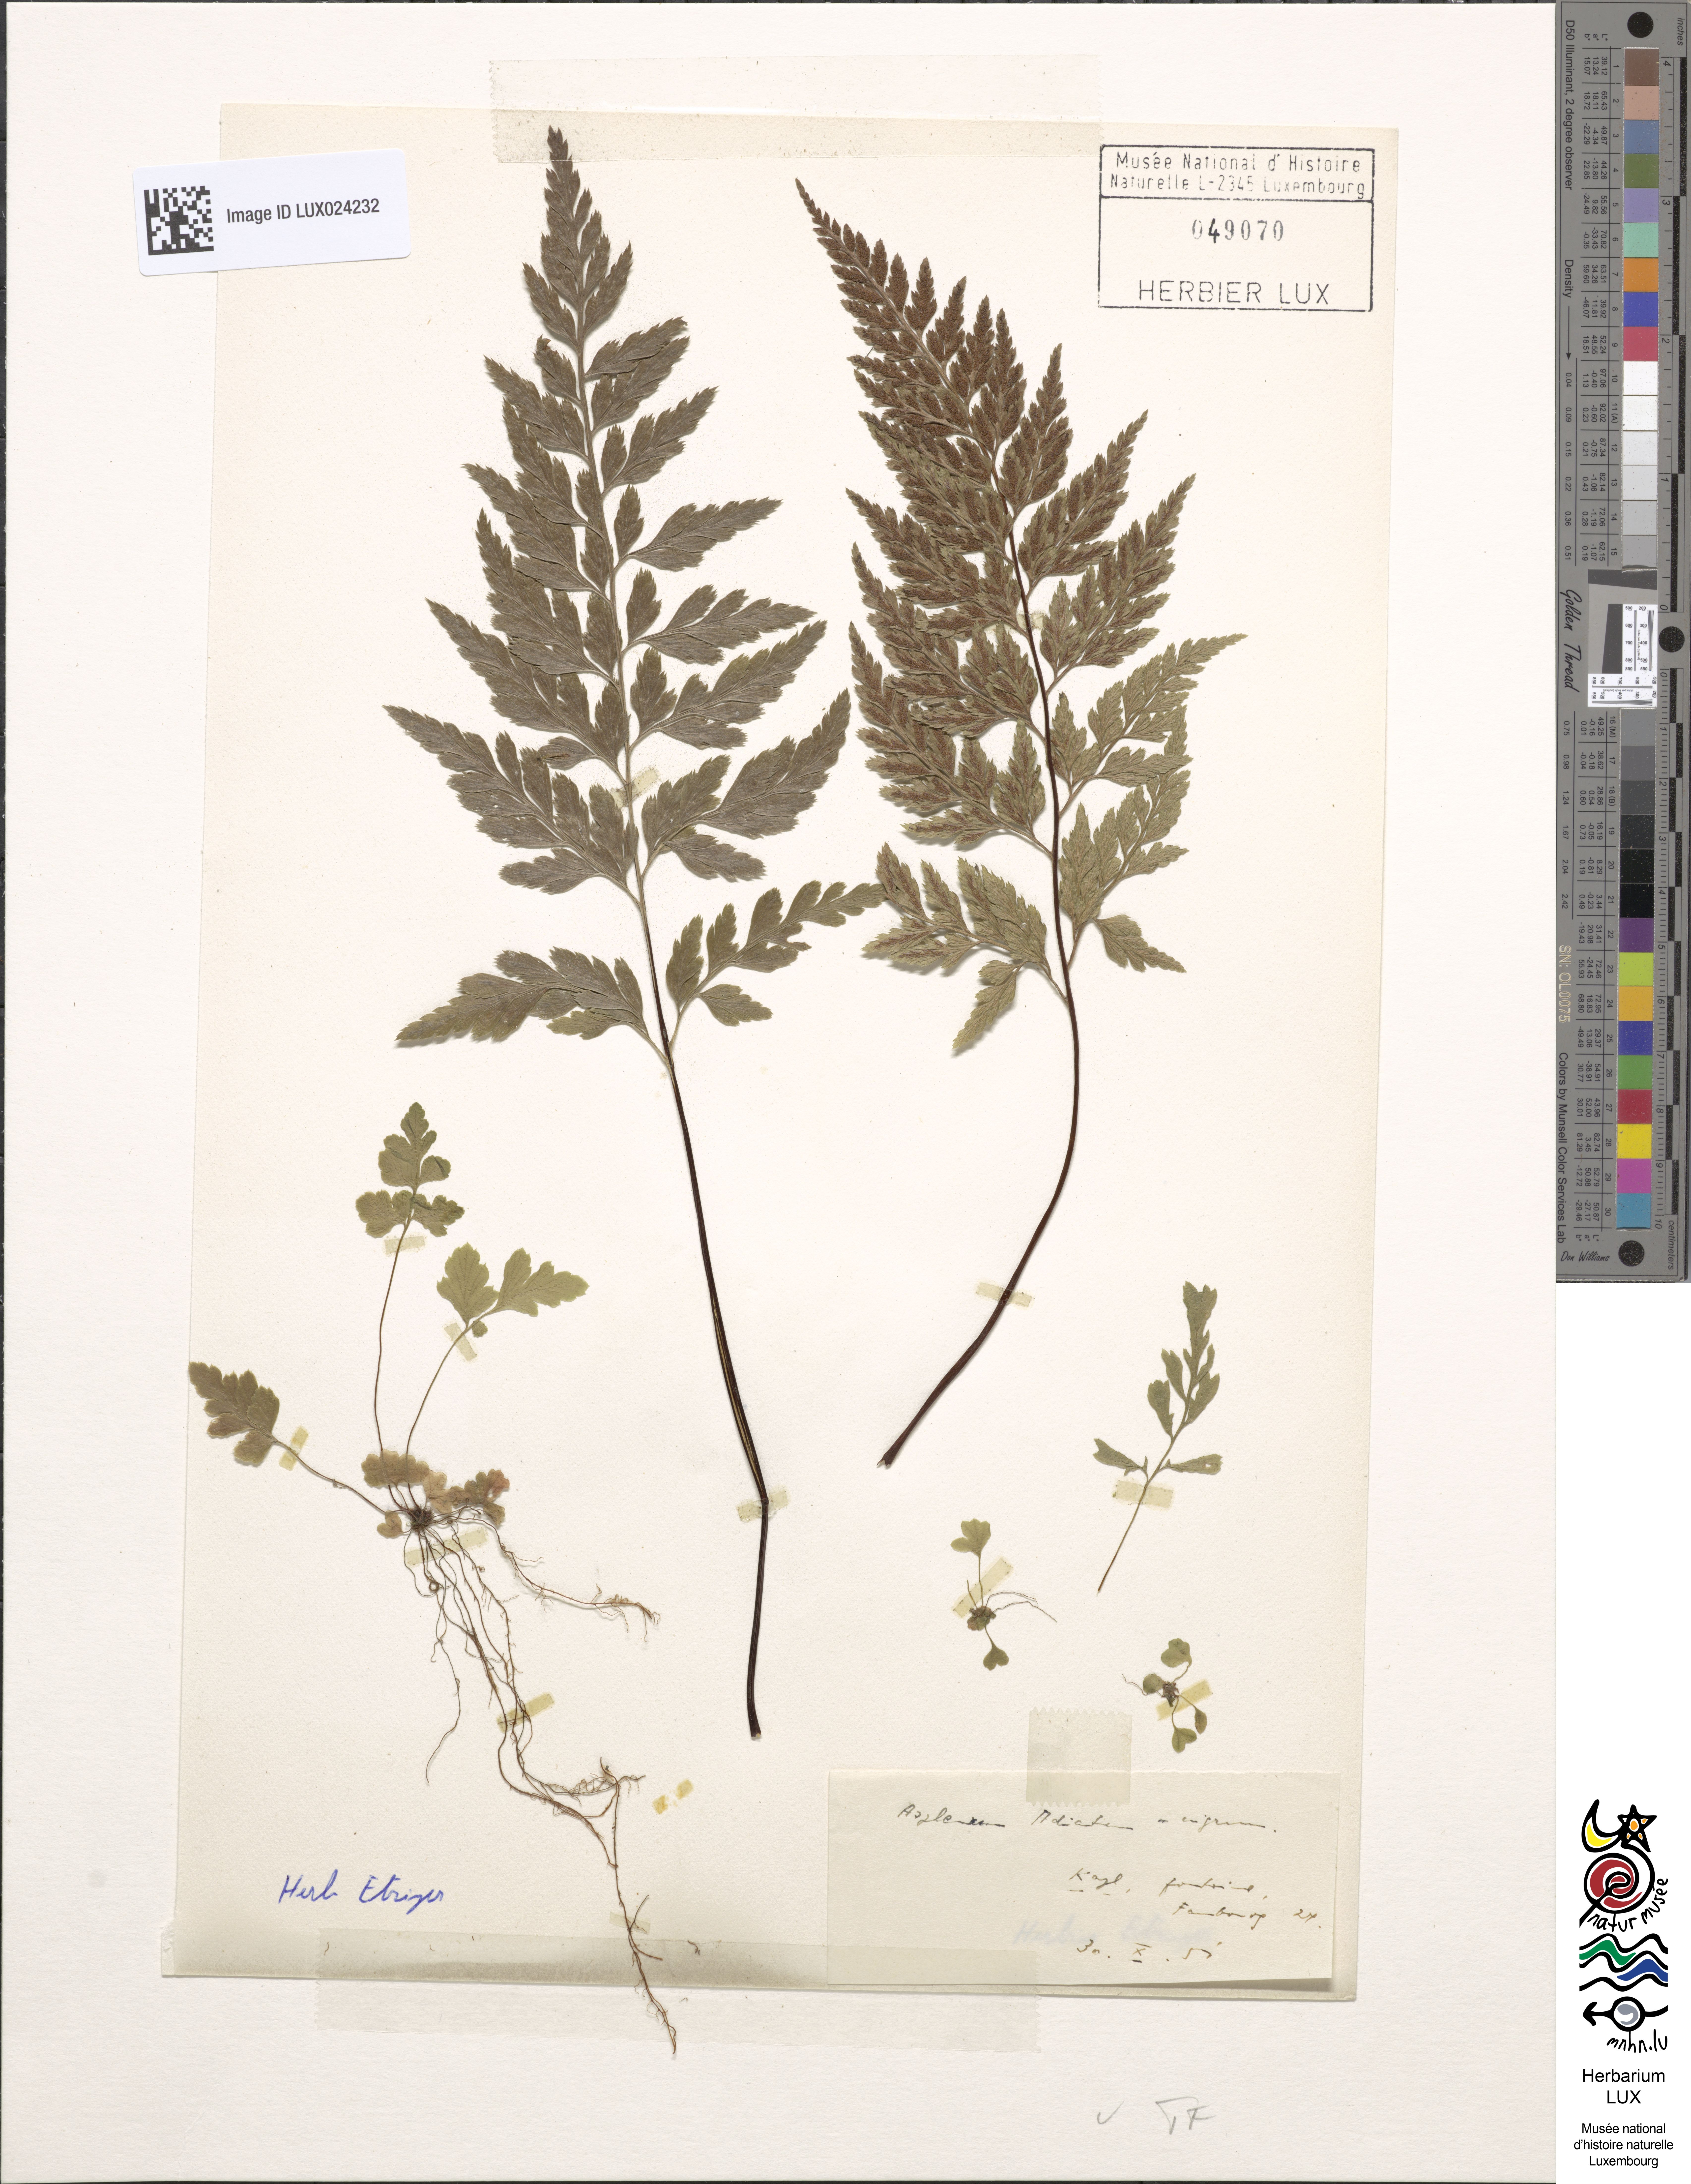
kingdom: Plantae
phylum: Tracheophyta
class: Polypodiopsida
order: Polypodiales
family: Aspleniaceae
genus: Asplenium
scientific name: Asplenium adiantum-nigrum
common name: Black spleenwort
